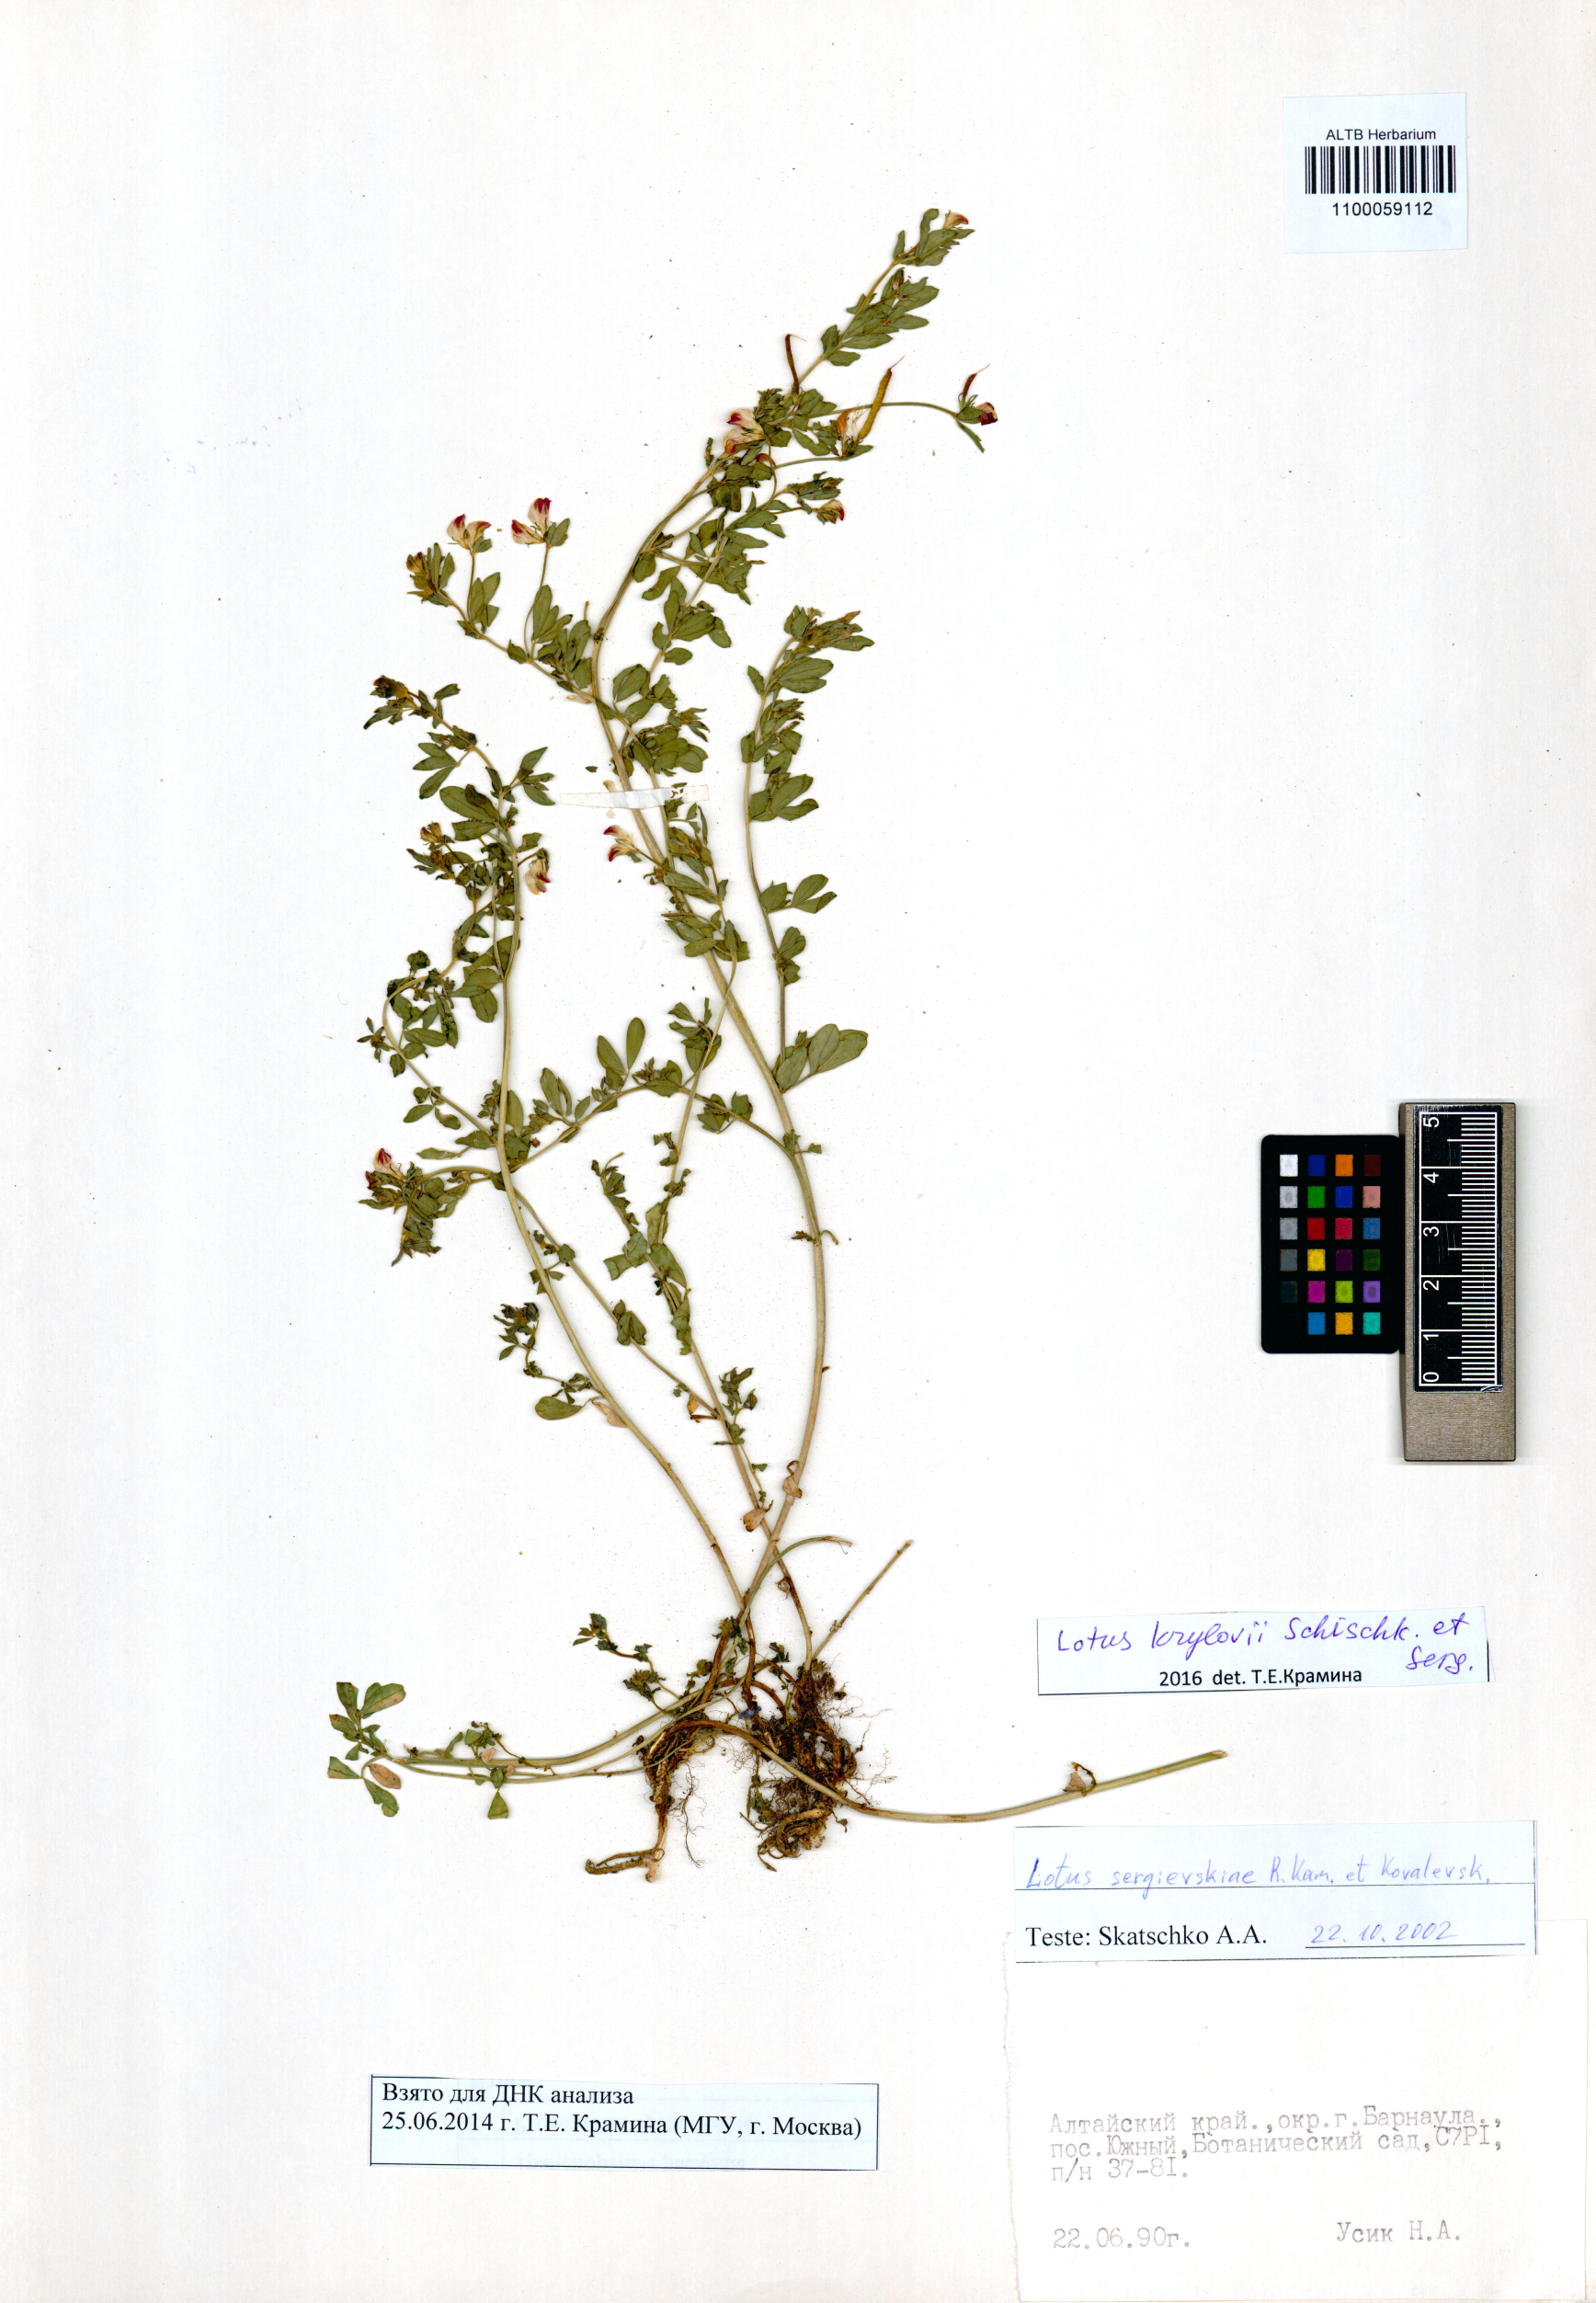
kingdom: Plantae
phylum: Tracheophyta
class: Magnoliopsida
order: Fabales
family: Fabaceae
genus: Lotus
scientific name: Lotus krylovii
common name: Krylov's bird's-foot trefoil
